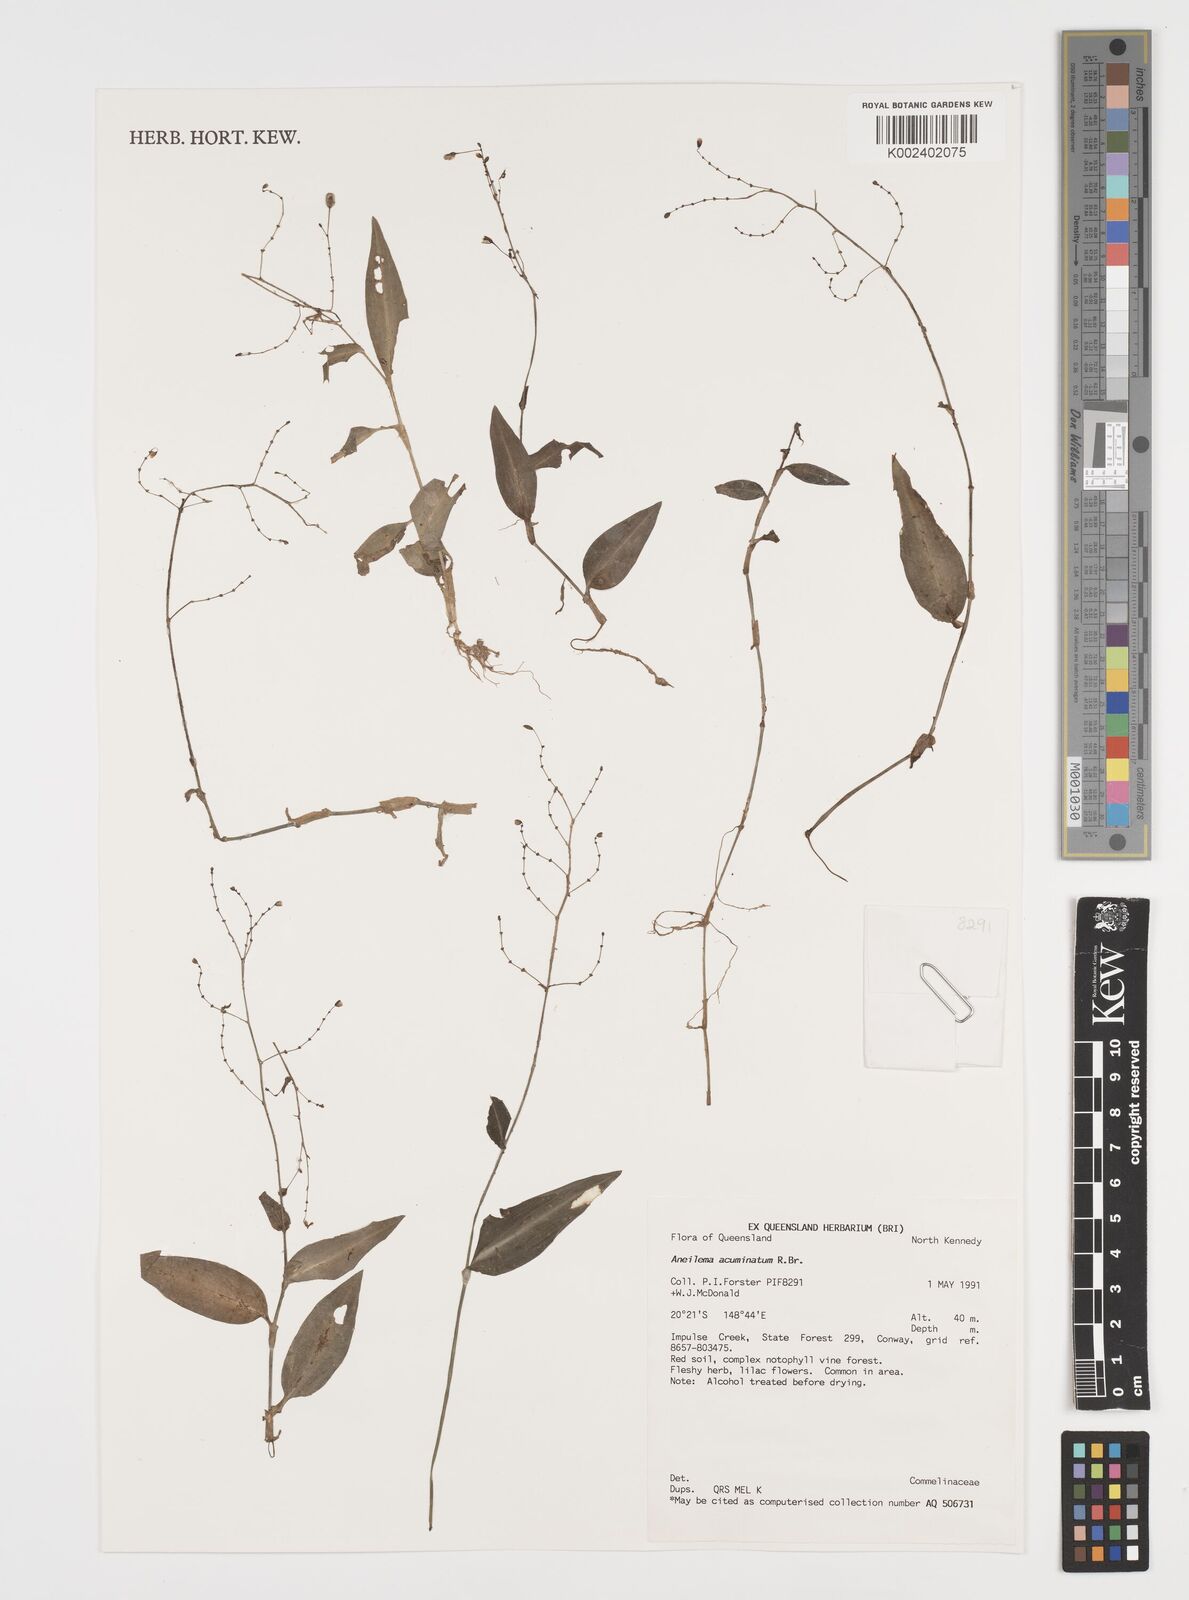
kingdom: Plantae
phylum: Tracheophyta
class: Liliopsida
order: Commelinales
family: Commelinaceae
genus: Aneilema
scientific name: Aneilema acuminatum
